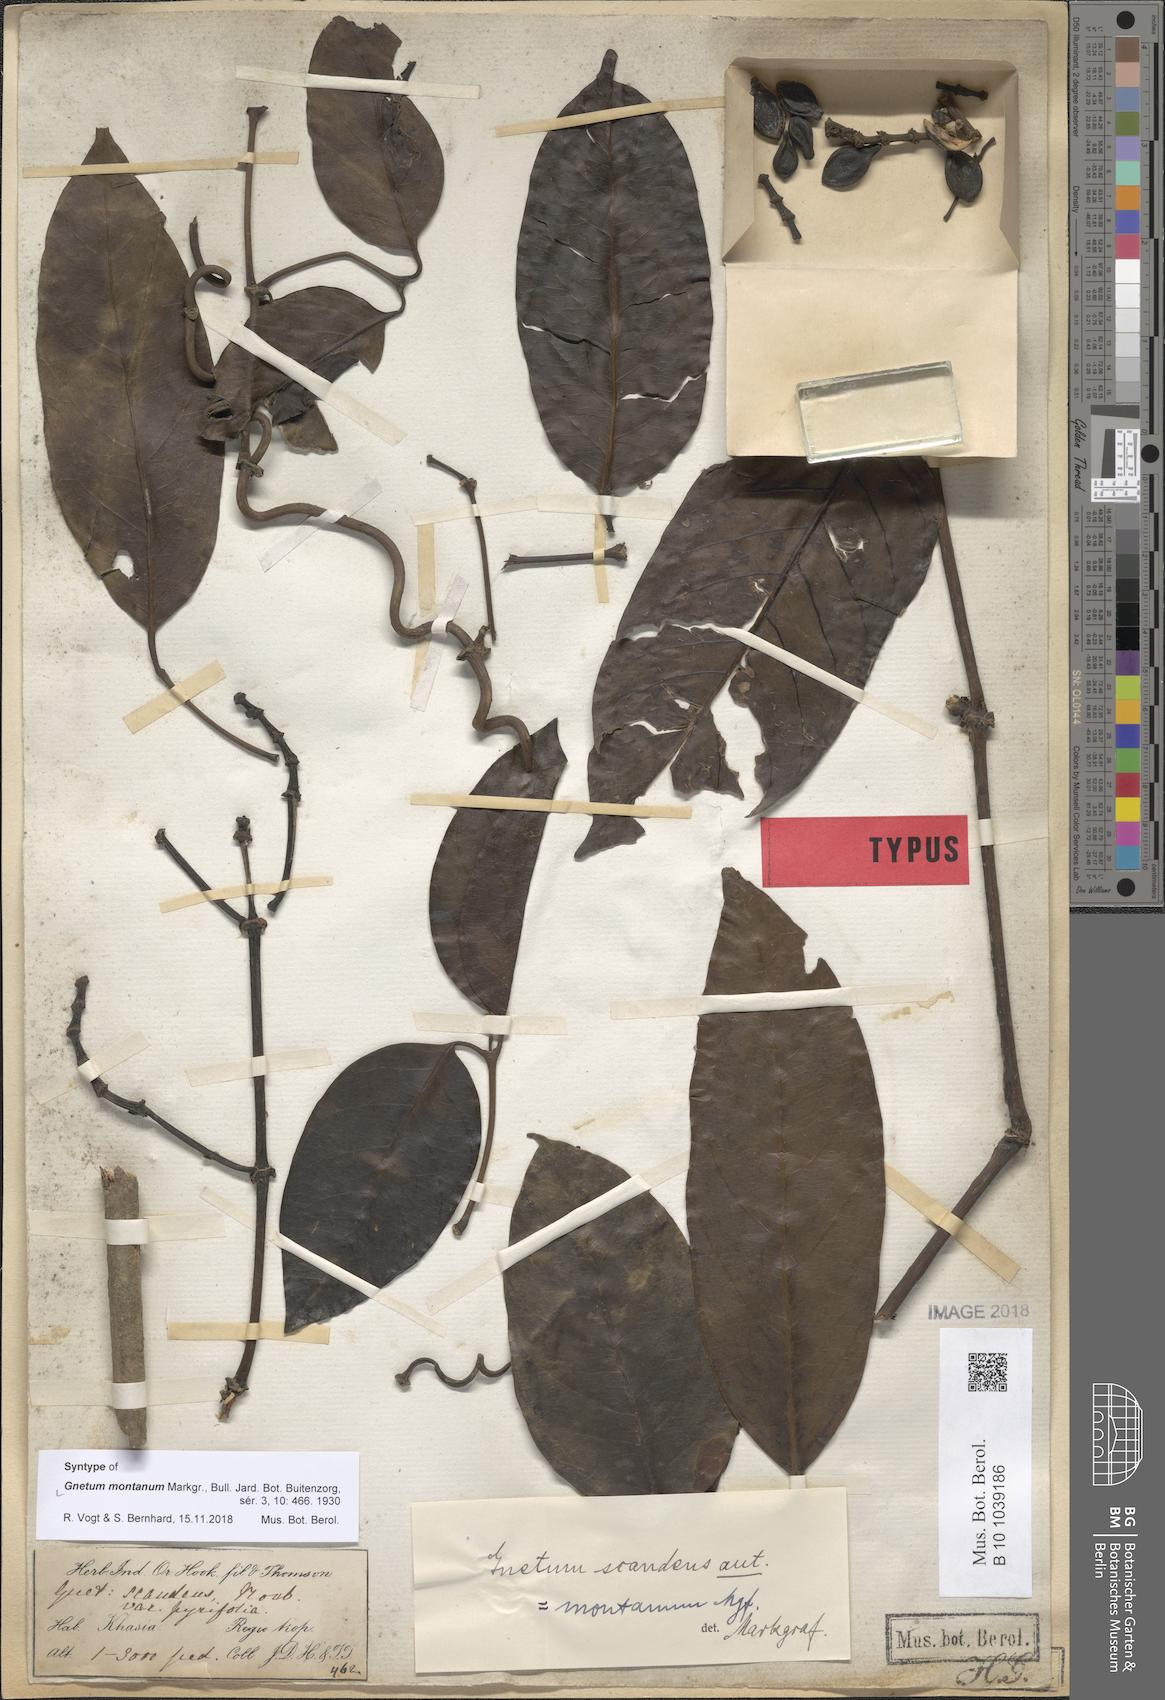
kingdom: Plantae
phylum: Tracheophyta
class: Gnetopsida
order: Gnetales
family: Gnetaceae
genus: Gnetum
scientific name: Gnetum montanum
